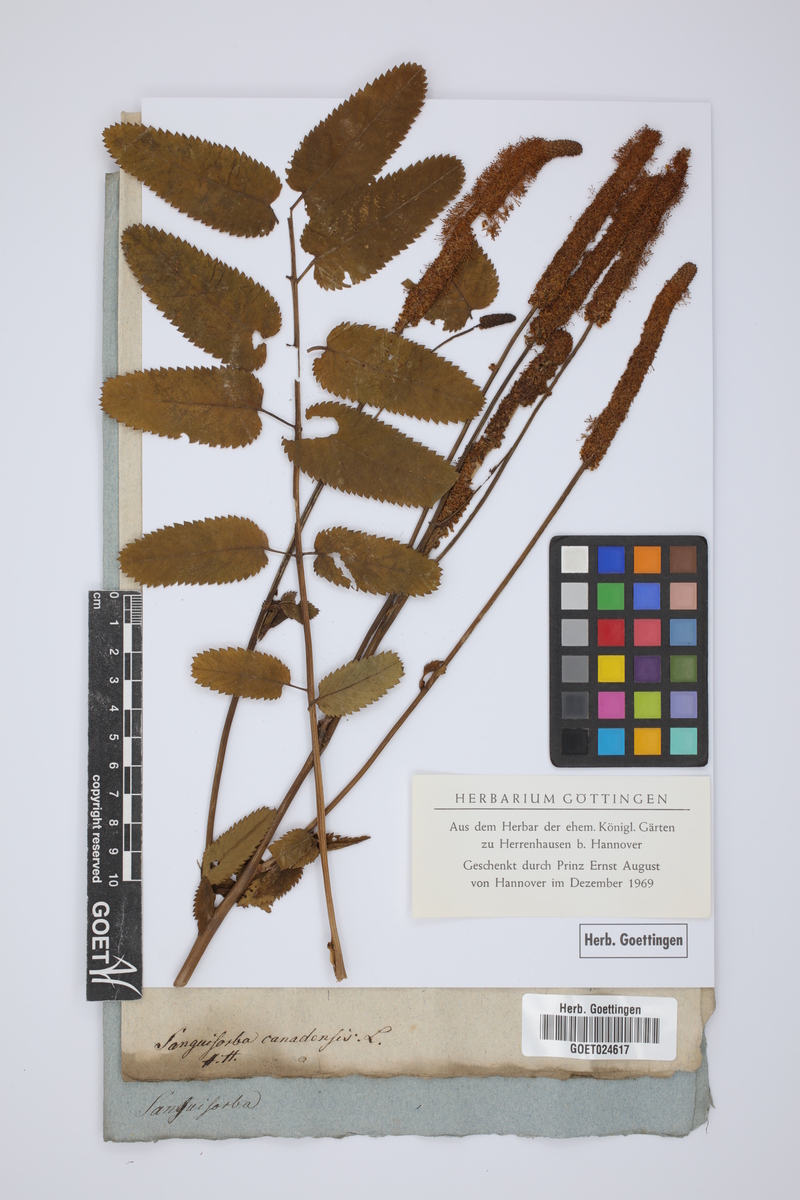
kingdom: Plantae
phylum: Tracheophyta
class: Magnoliopsida
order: Rosales
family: Rosaceae
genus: Sanguisorba
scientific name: Sanguisorba canadensis
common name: White burnet
